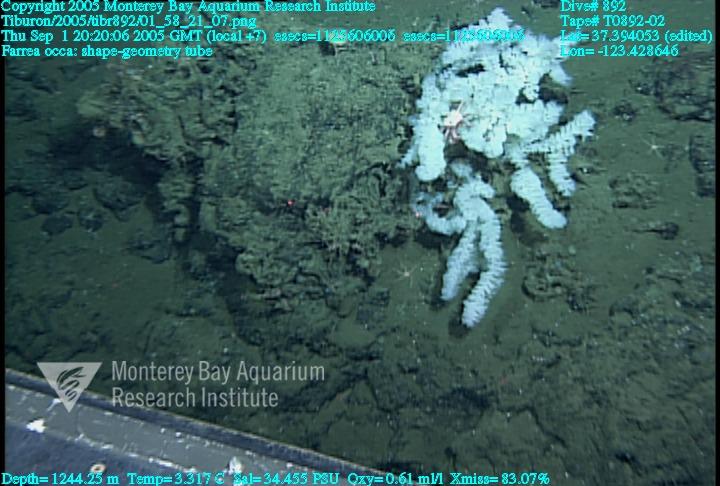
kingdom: Animalia
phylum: Porifera
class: Hexactinellida
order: Sceptrulophora
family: Farreidae
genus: Farrea
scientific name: Farrea occa
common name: Reversed glass sponge
